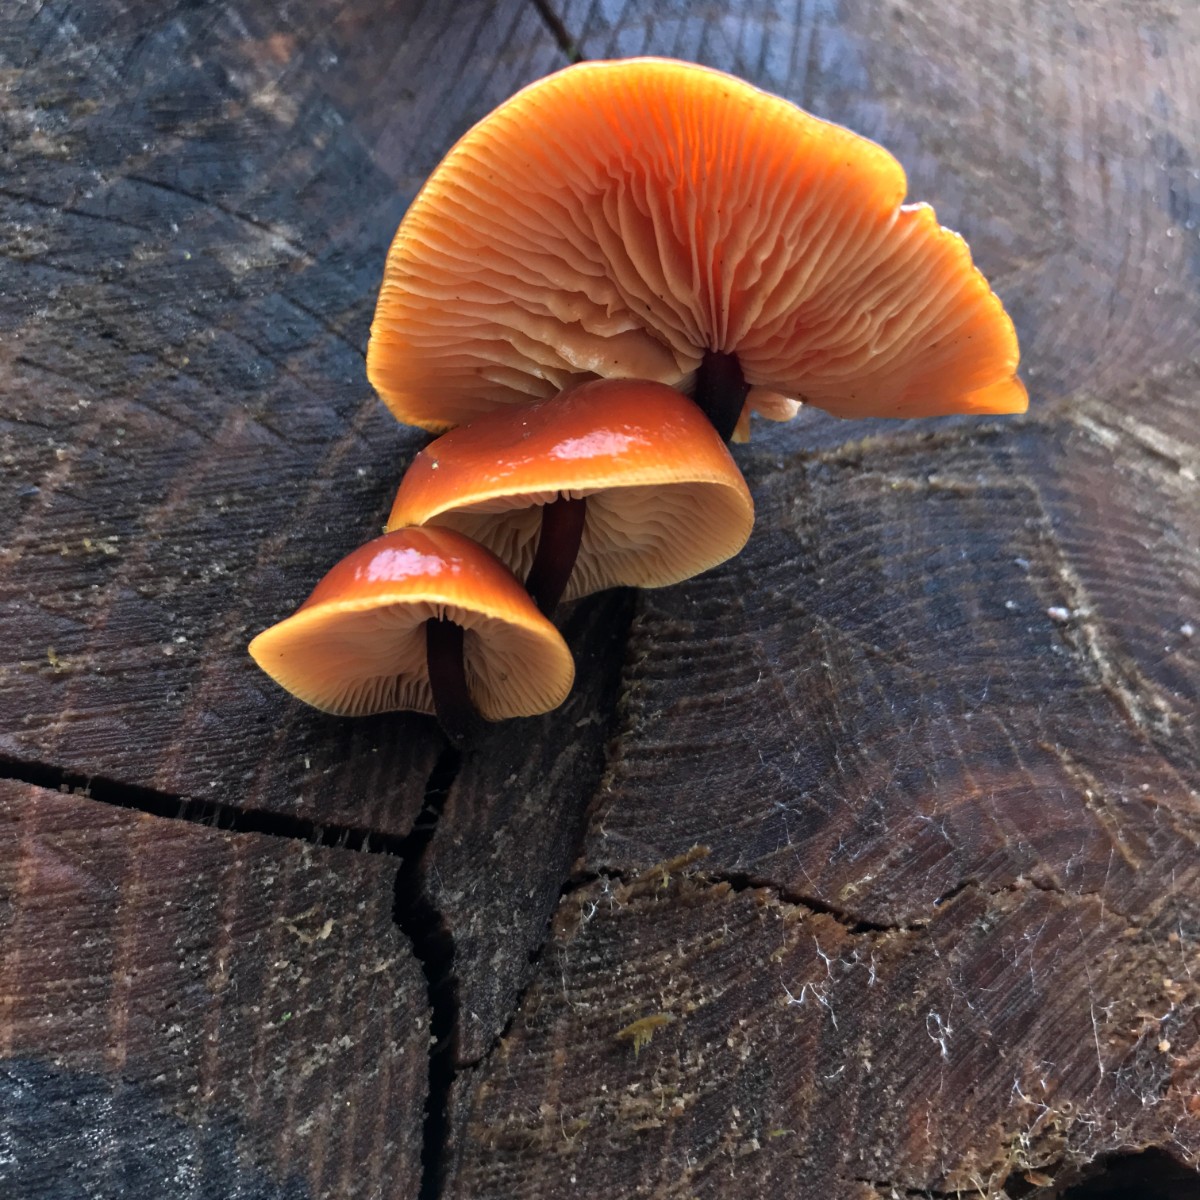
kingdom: Fungi
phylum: Basidiomycota
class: Agaricomycetes
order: Agaricales
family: Physalacriaceae
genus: Flammulina
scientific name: Flammulina velutipes
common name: gul fløjlsfod
